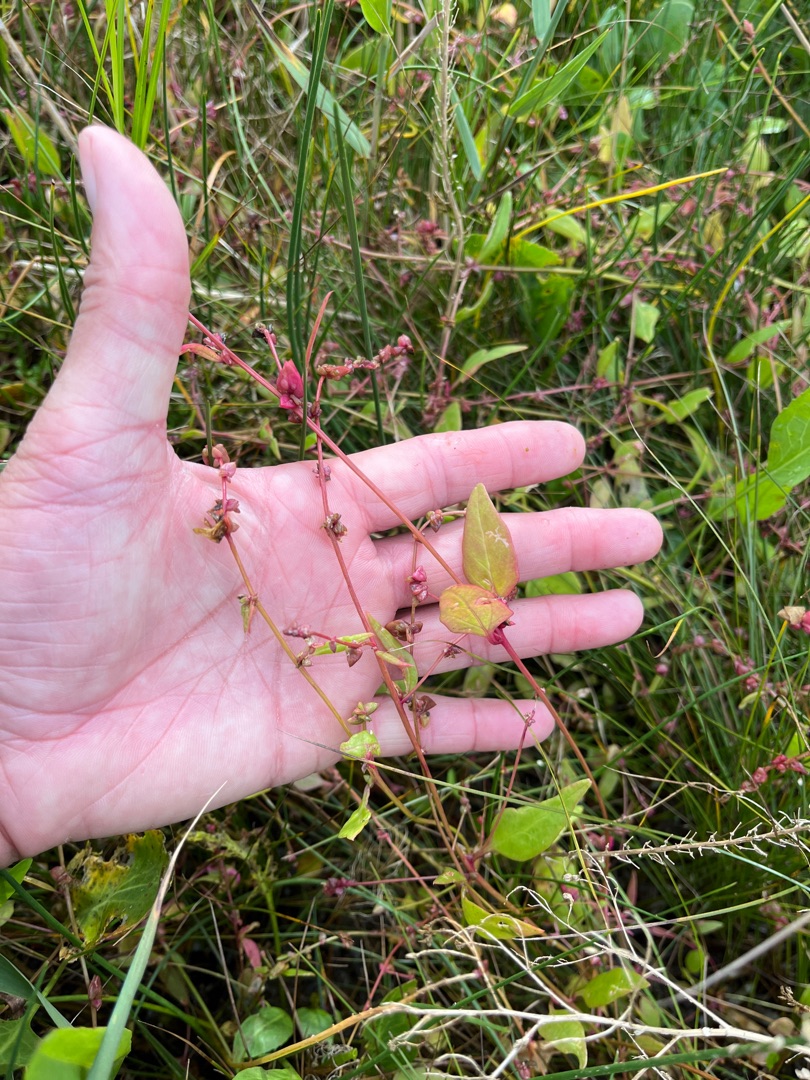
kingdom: Plantae
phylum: Tracheophyta
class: Magnoliopsida
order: Caryophyllales
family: Amaranthaceae
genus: Atriplex
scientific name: Atriplex prostrata
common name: Spyd-mælde
